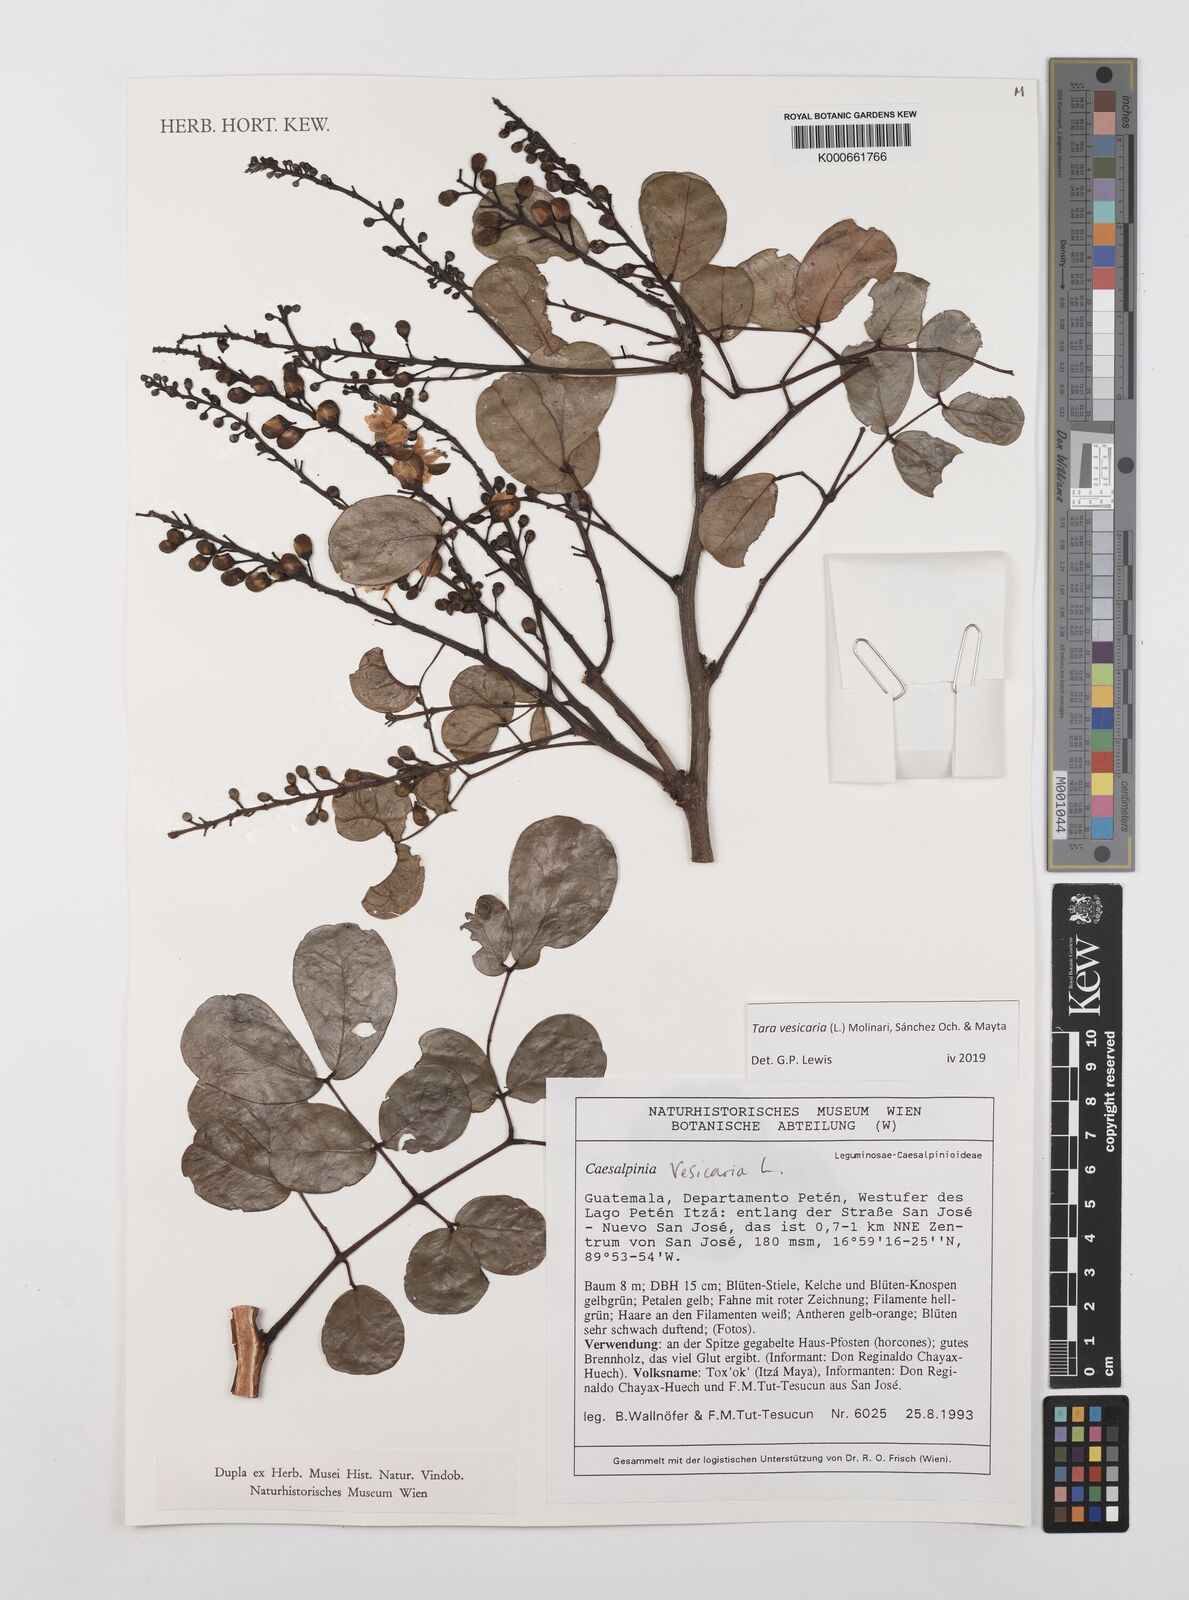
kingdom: Plantae
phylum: Tracheophyta
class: Magnoliopsida
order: Fabales
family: Fabaceae
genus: Tara
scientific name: Tara vesicaria
